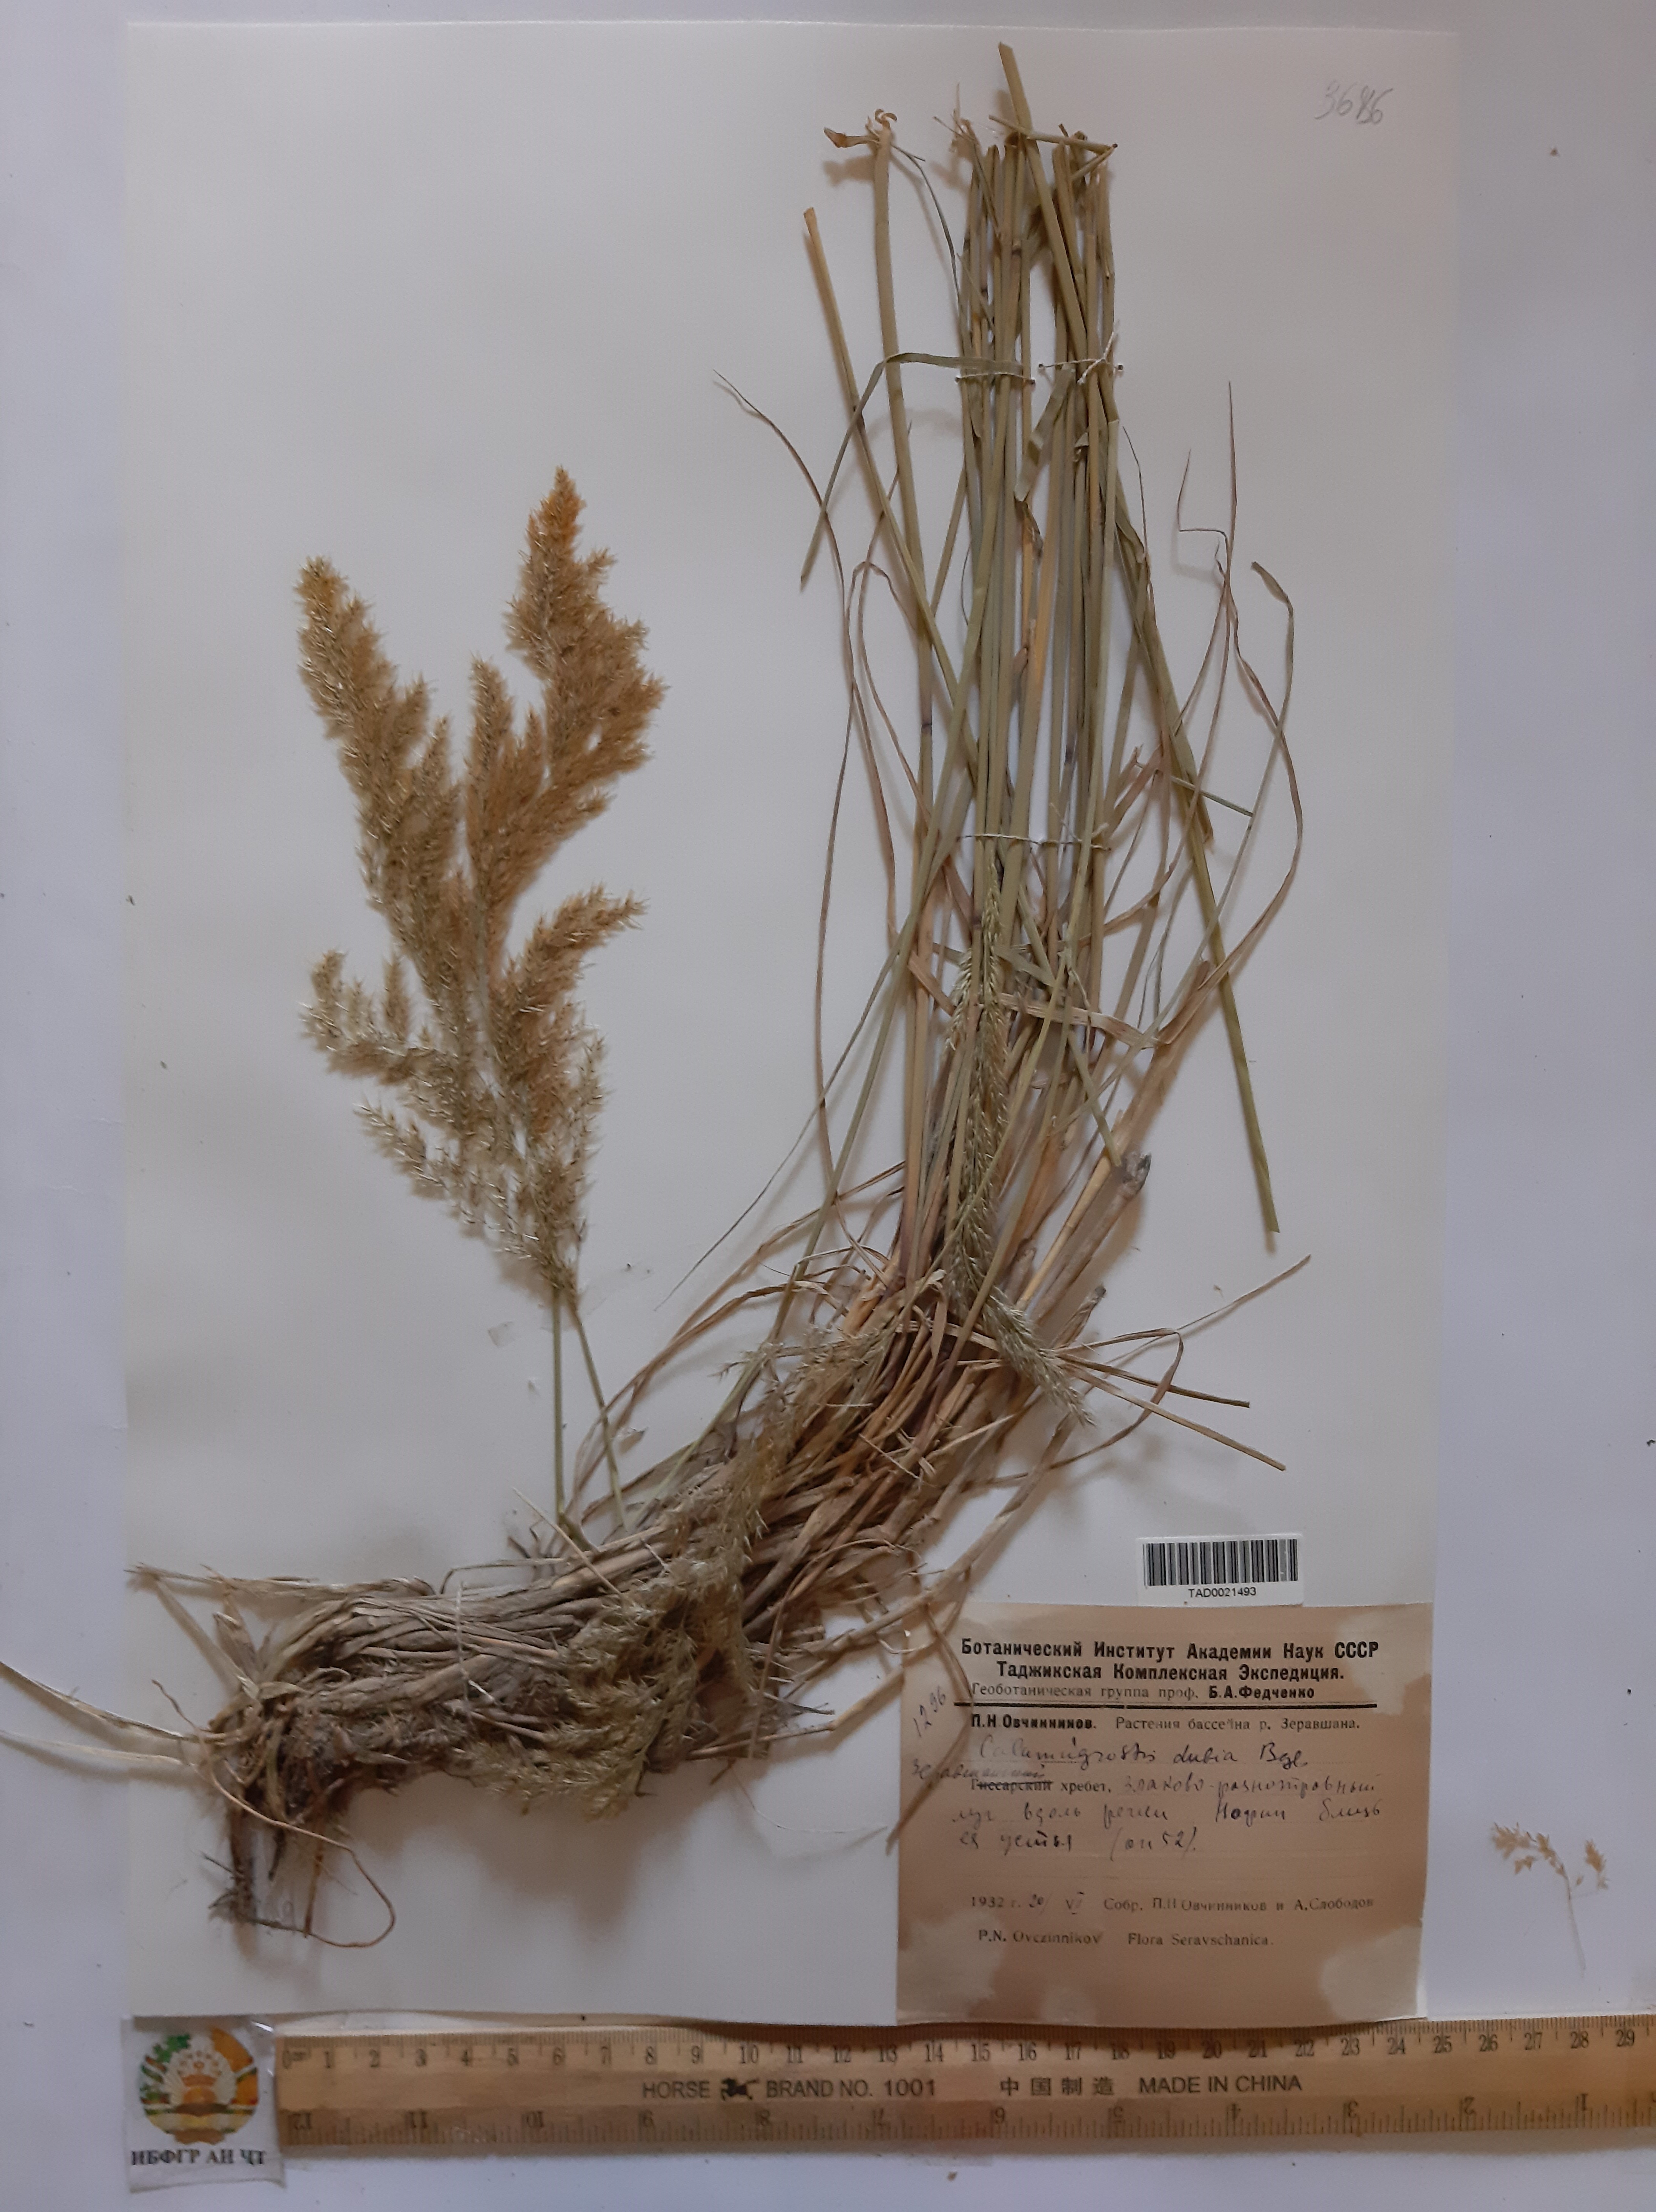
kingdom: Plantae
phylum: Tracheophyta
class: Liliopsida
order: Poales
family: Poaceae
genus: Calamagrostis
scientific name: Calamagrostis pseudophragmites
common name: Coastal small-reed
